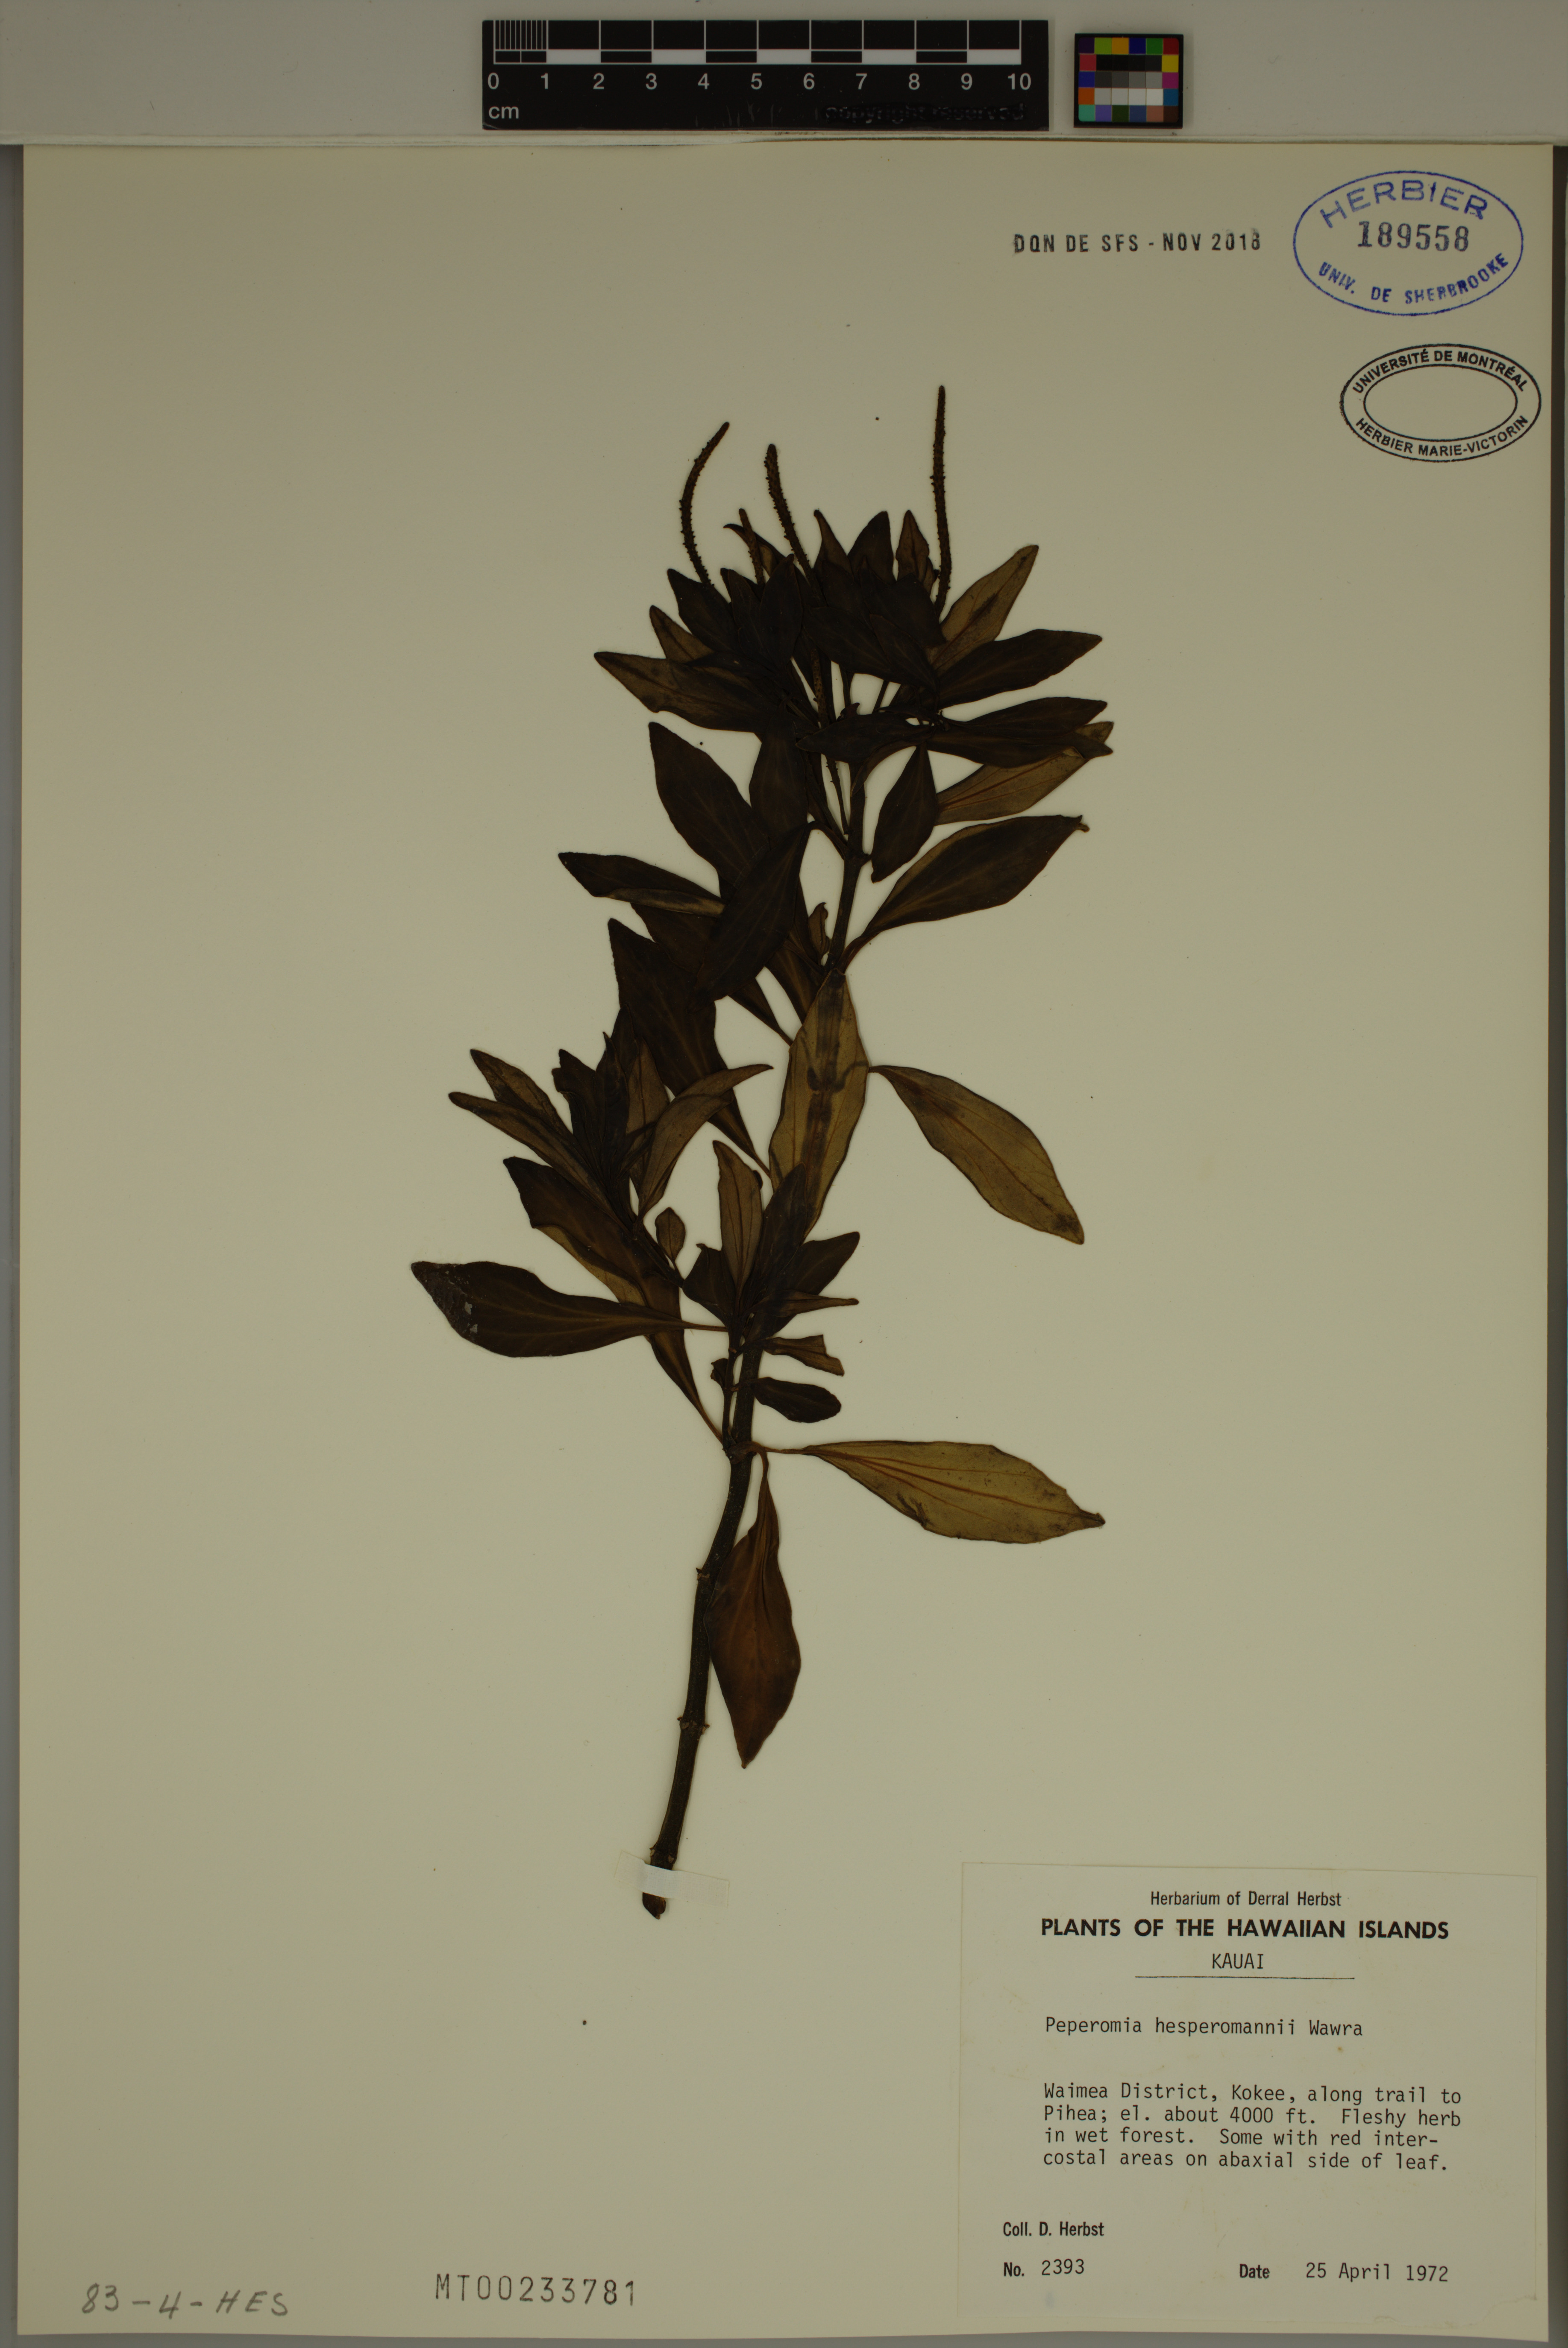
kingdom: Plantae
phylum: Tracheophyta
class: Magnoliopsida
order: Piperales
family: Piperaceae
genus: Peperomia
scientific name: Peperomia hesperomannii
